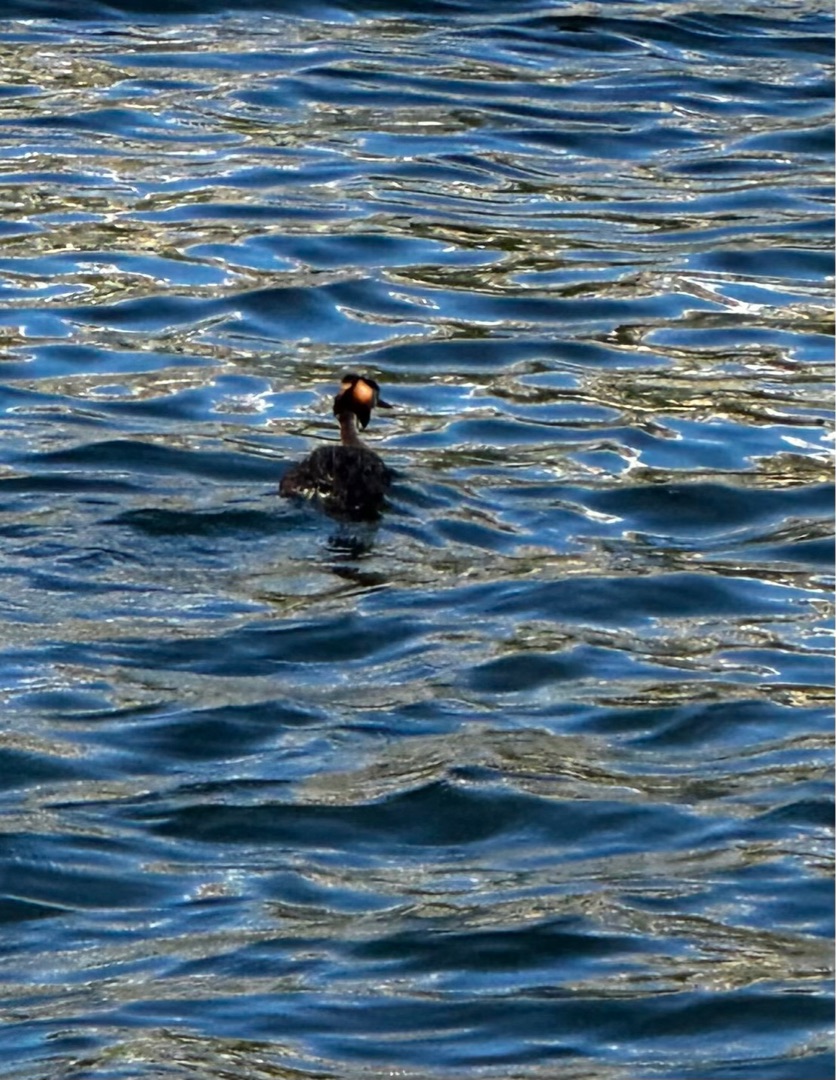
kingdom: Animalia
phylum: Chordata
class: Aves
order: Podicipediformes
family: Podicipedidae
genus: Podiceps
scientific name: Podiceps cristatus
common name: Toppet lappedykker
